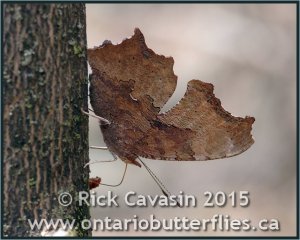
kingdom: Animalia
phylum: Arthropoda
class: Insecta
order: Lepidoptera
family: Nymphalidae
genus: Polygonia
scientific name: Polygonia comma
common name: Eastern Comma
